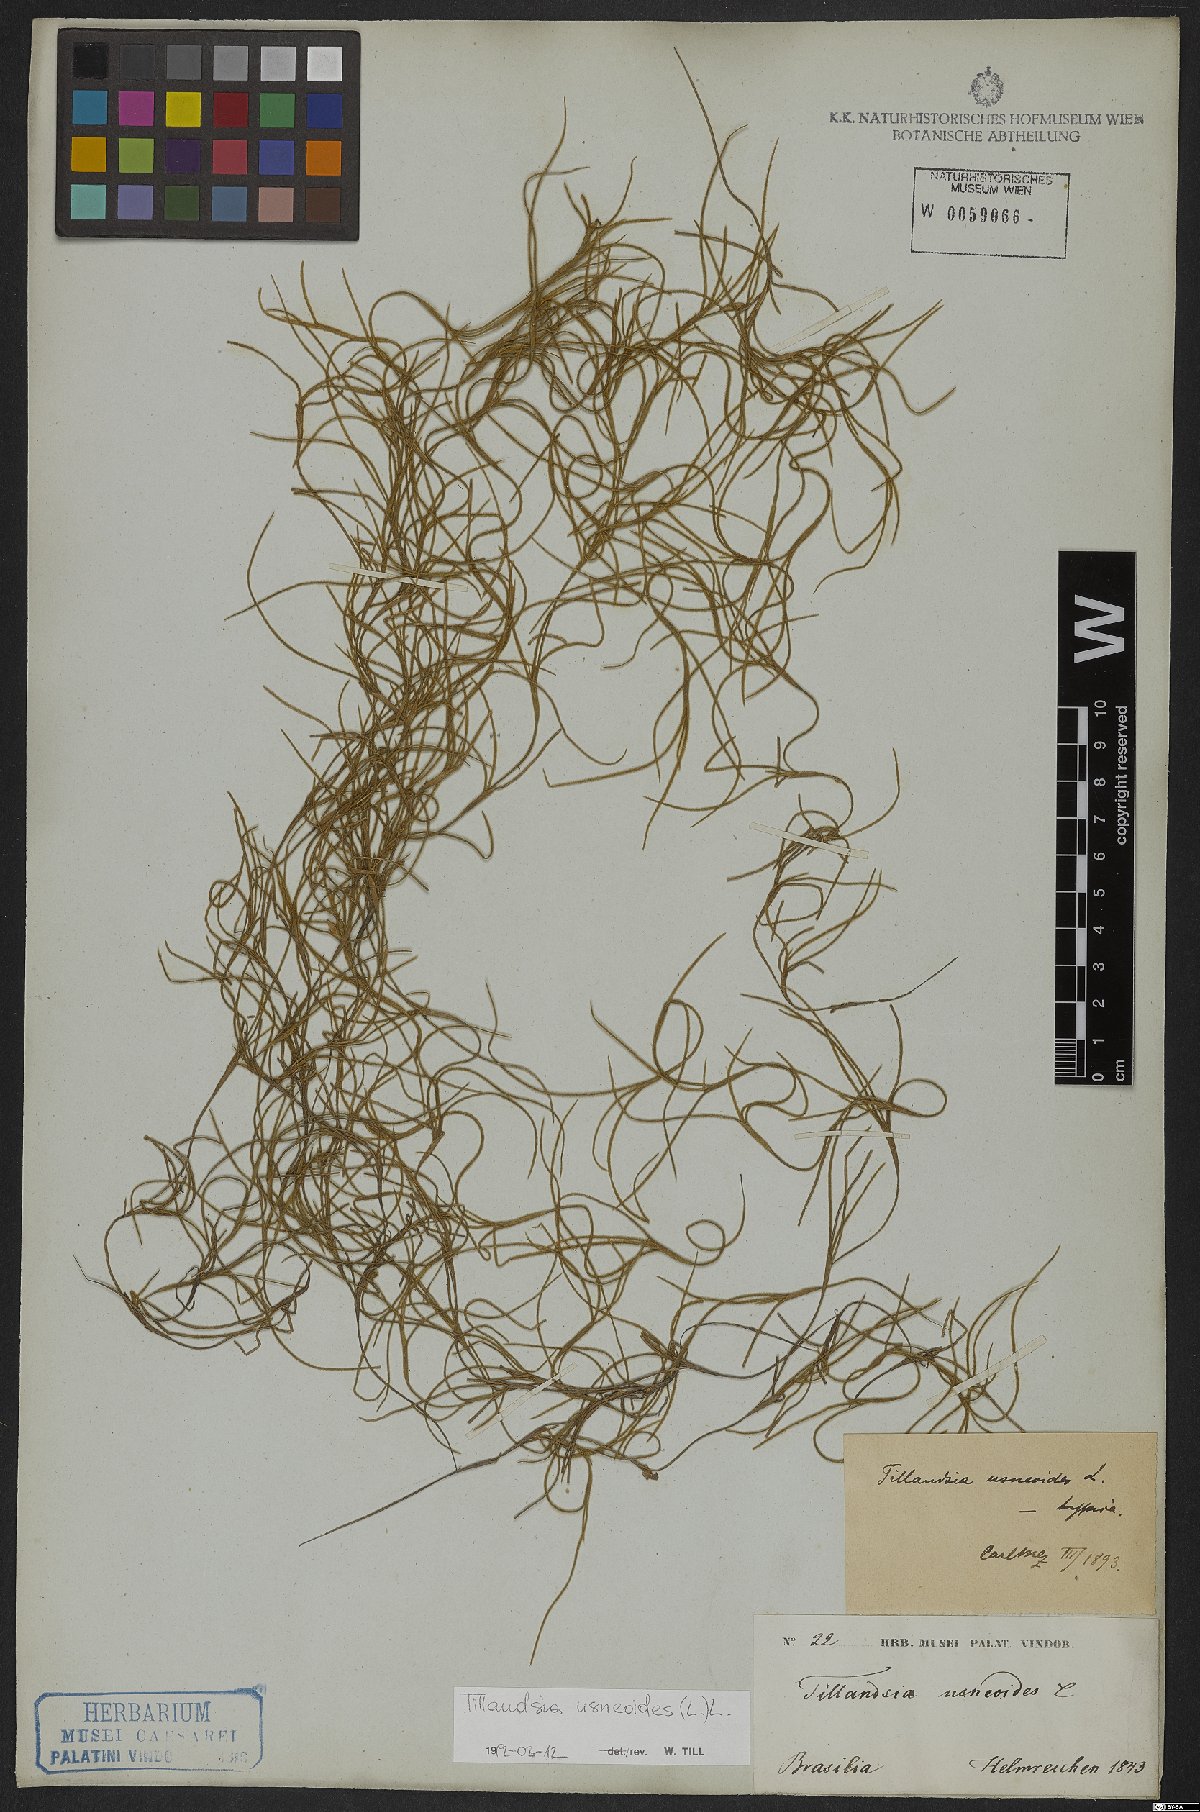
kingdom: Plantae
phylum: Tracheophyta
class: Liliopsida
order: Poales
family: Bromeliaceae
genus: Tillandsia
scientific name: Tillandsia usneoides
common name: Spanish moss
